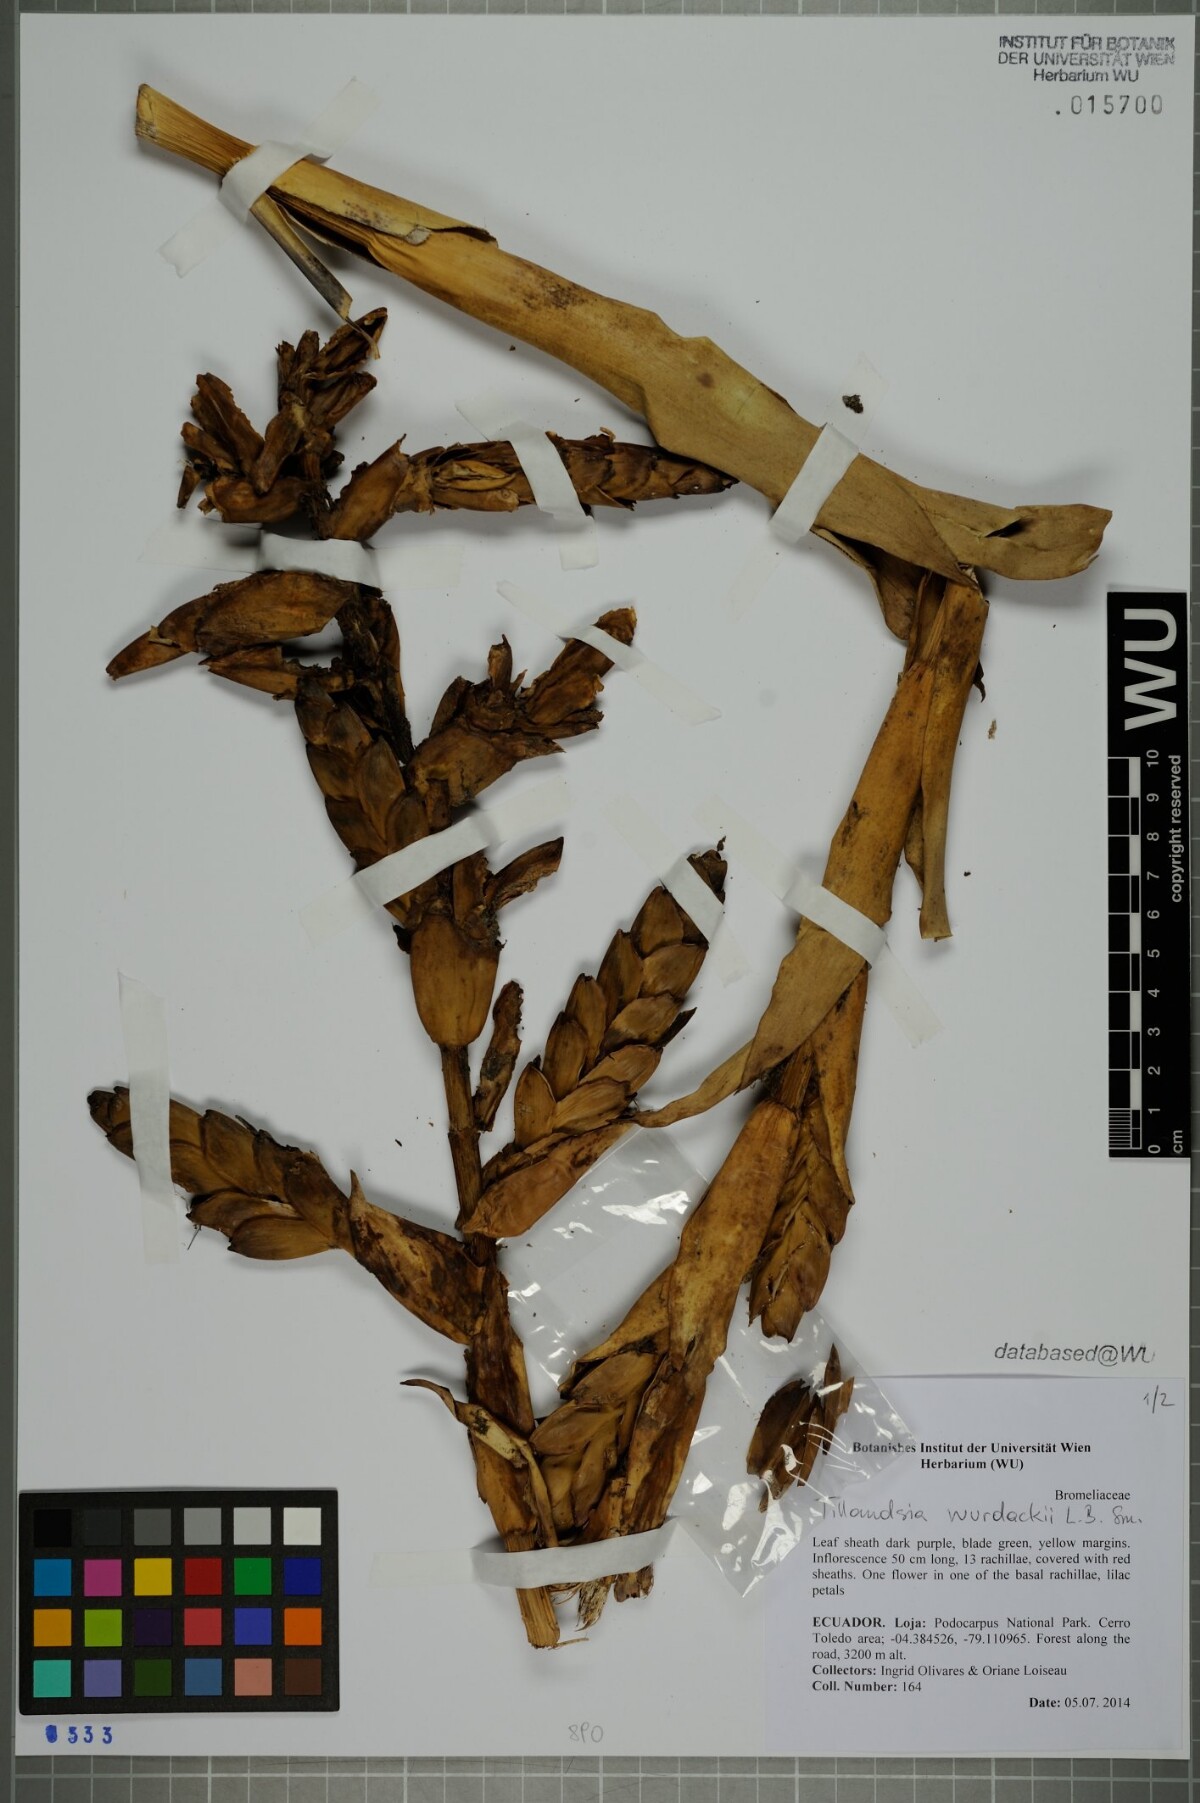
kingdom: Plantae
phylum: Tracheophyta
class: Liliopsida
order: Poales
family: Bromeliaceae
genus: Tillandsia
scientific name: Tillandsia wurdackii
